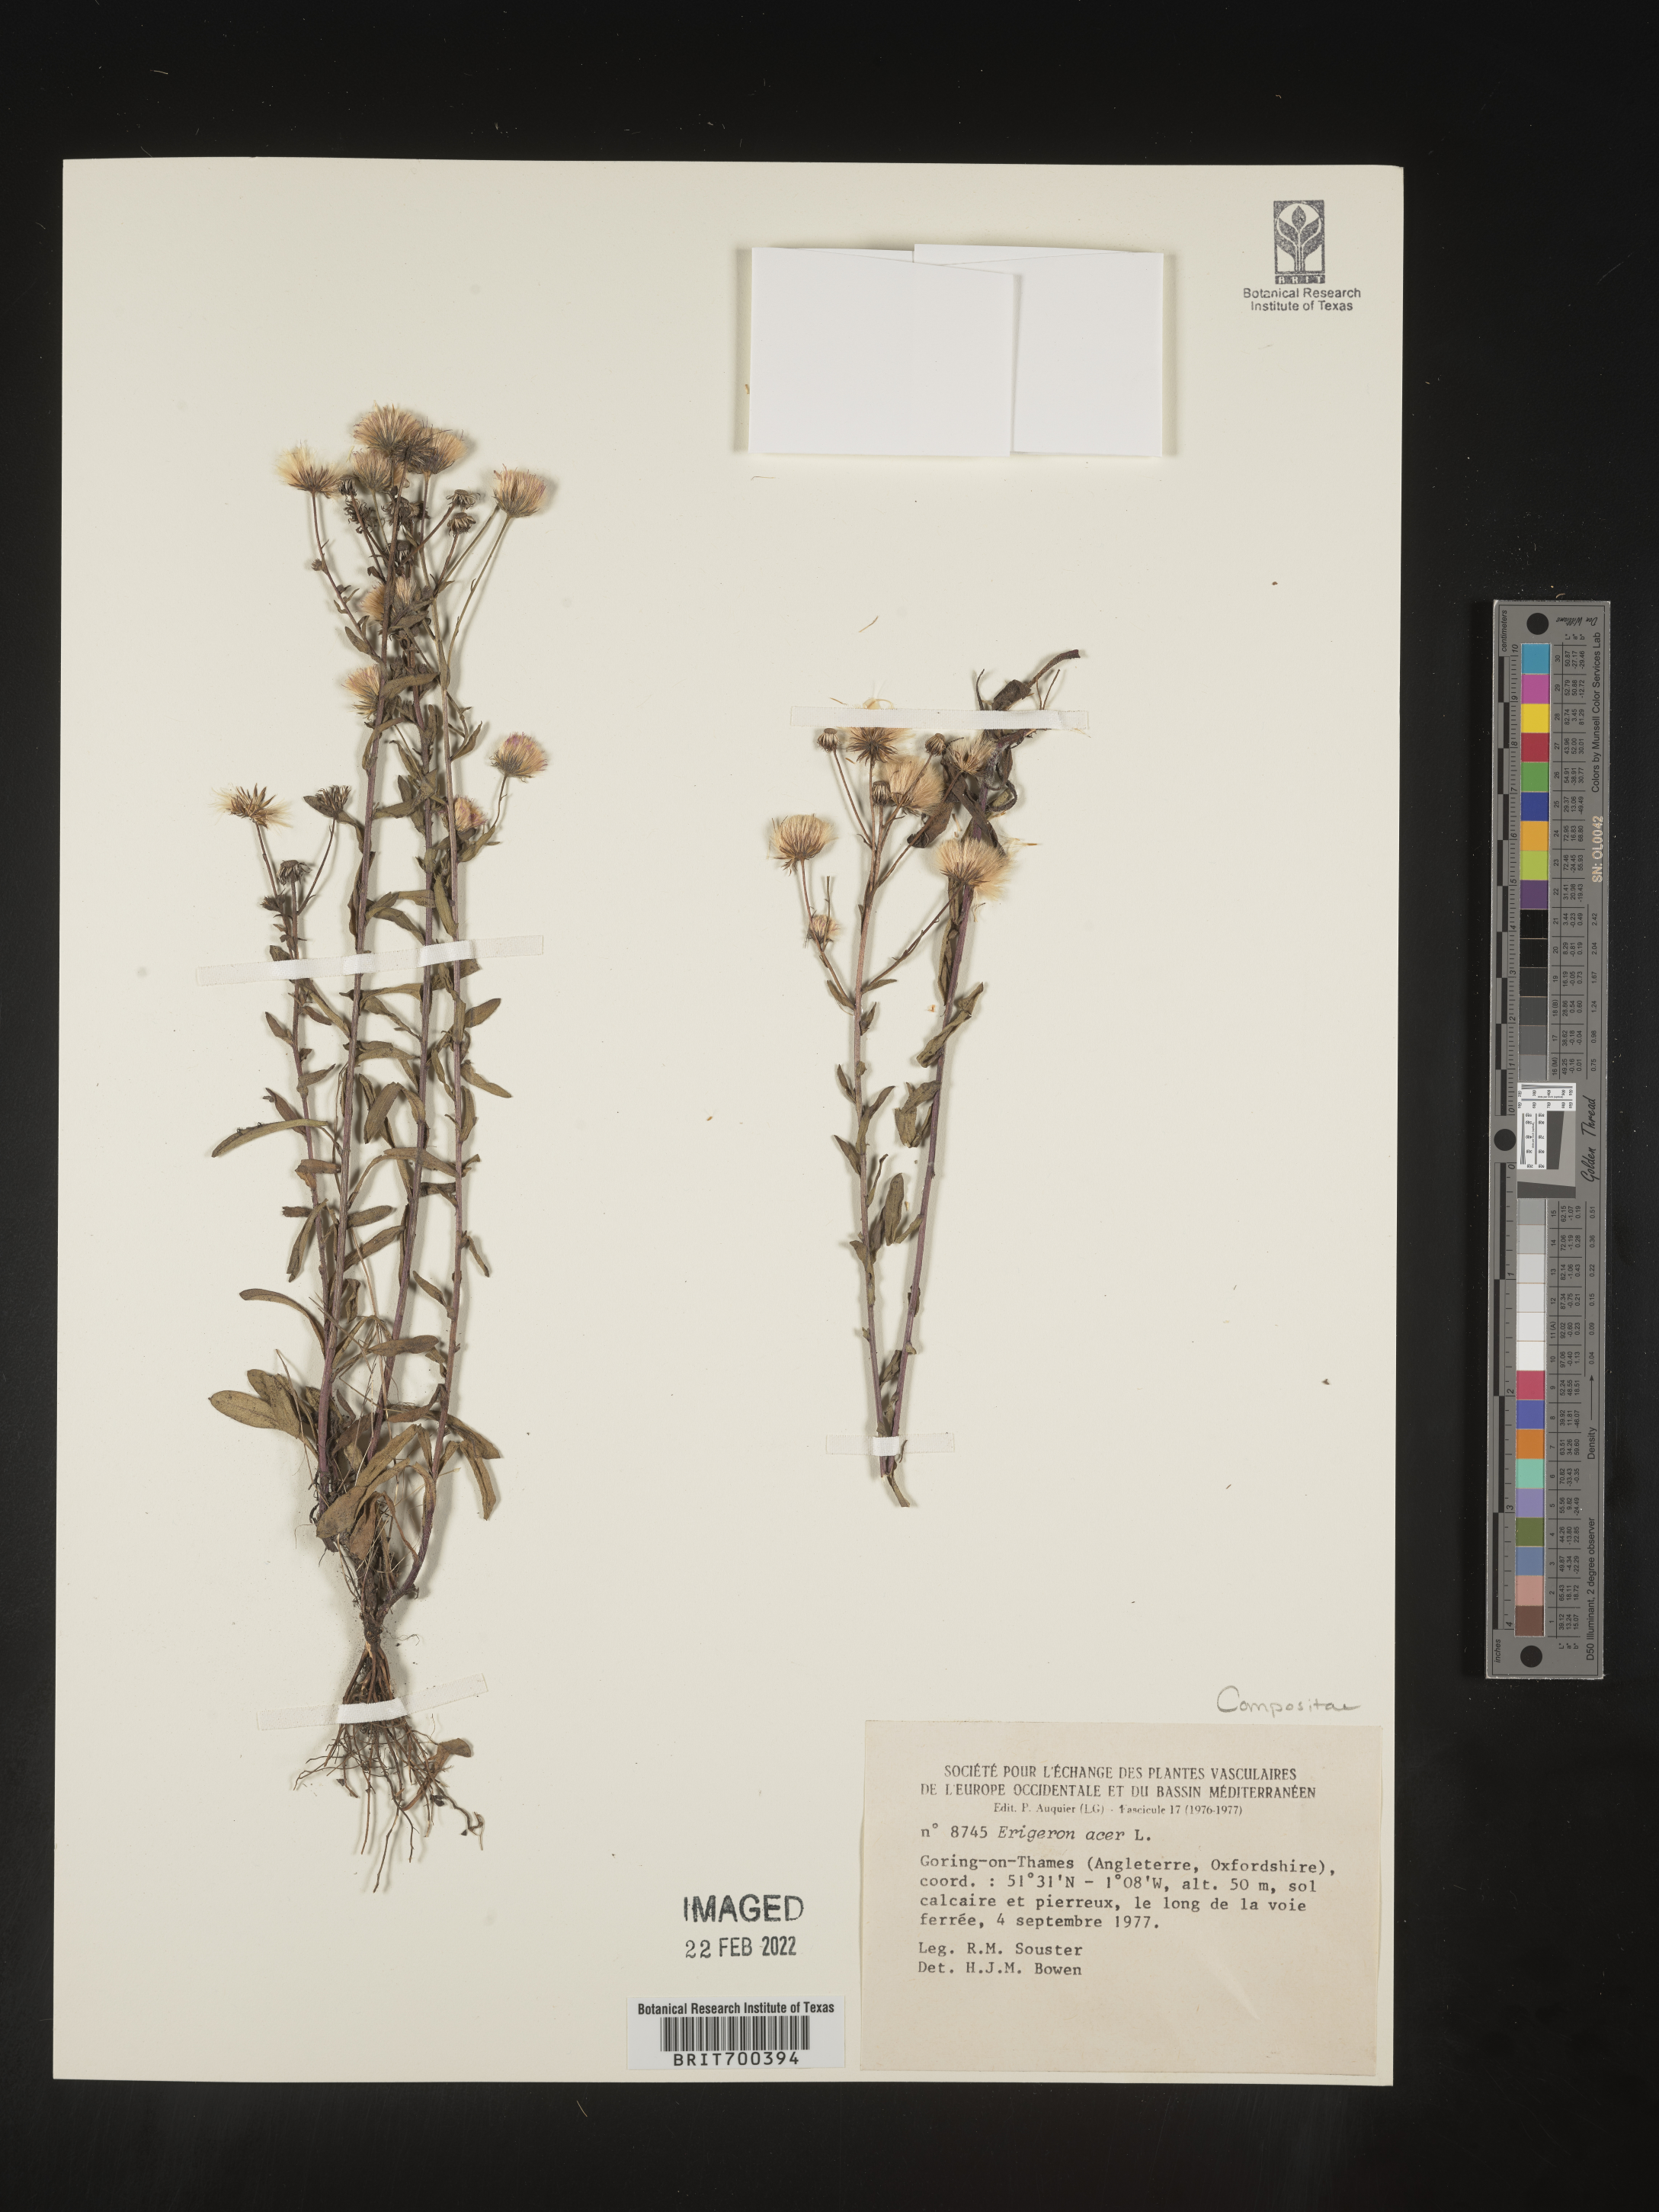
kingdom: Plantae
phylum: Tracheophyta
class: Magnoliopsida
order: Asterales
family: Asteraceae
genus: Erigeron
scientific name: Erigeron
